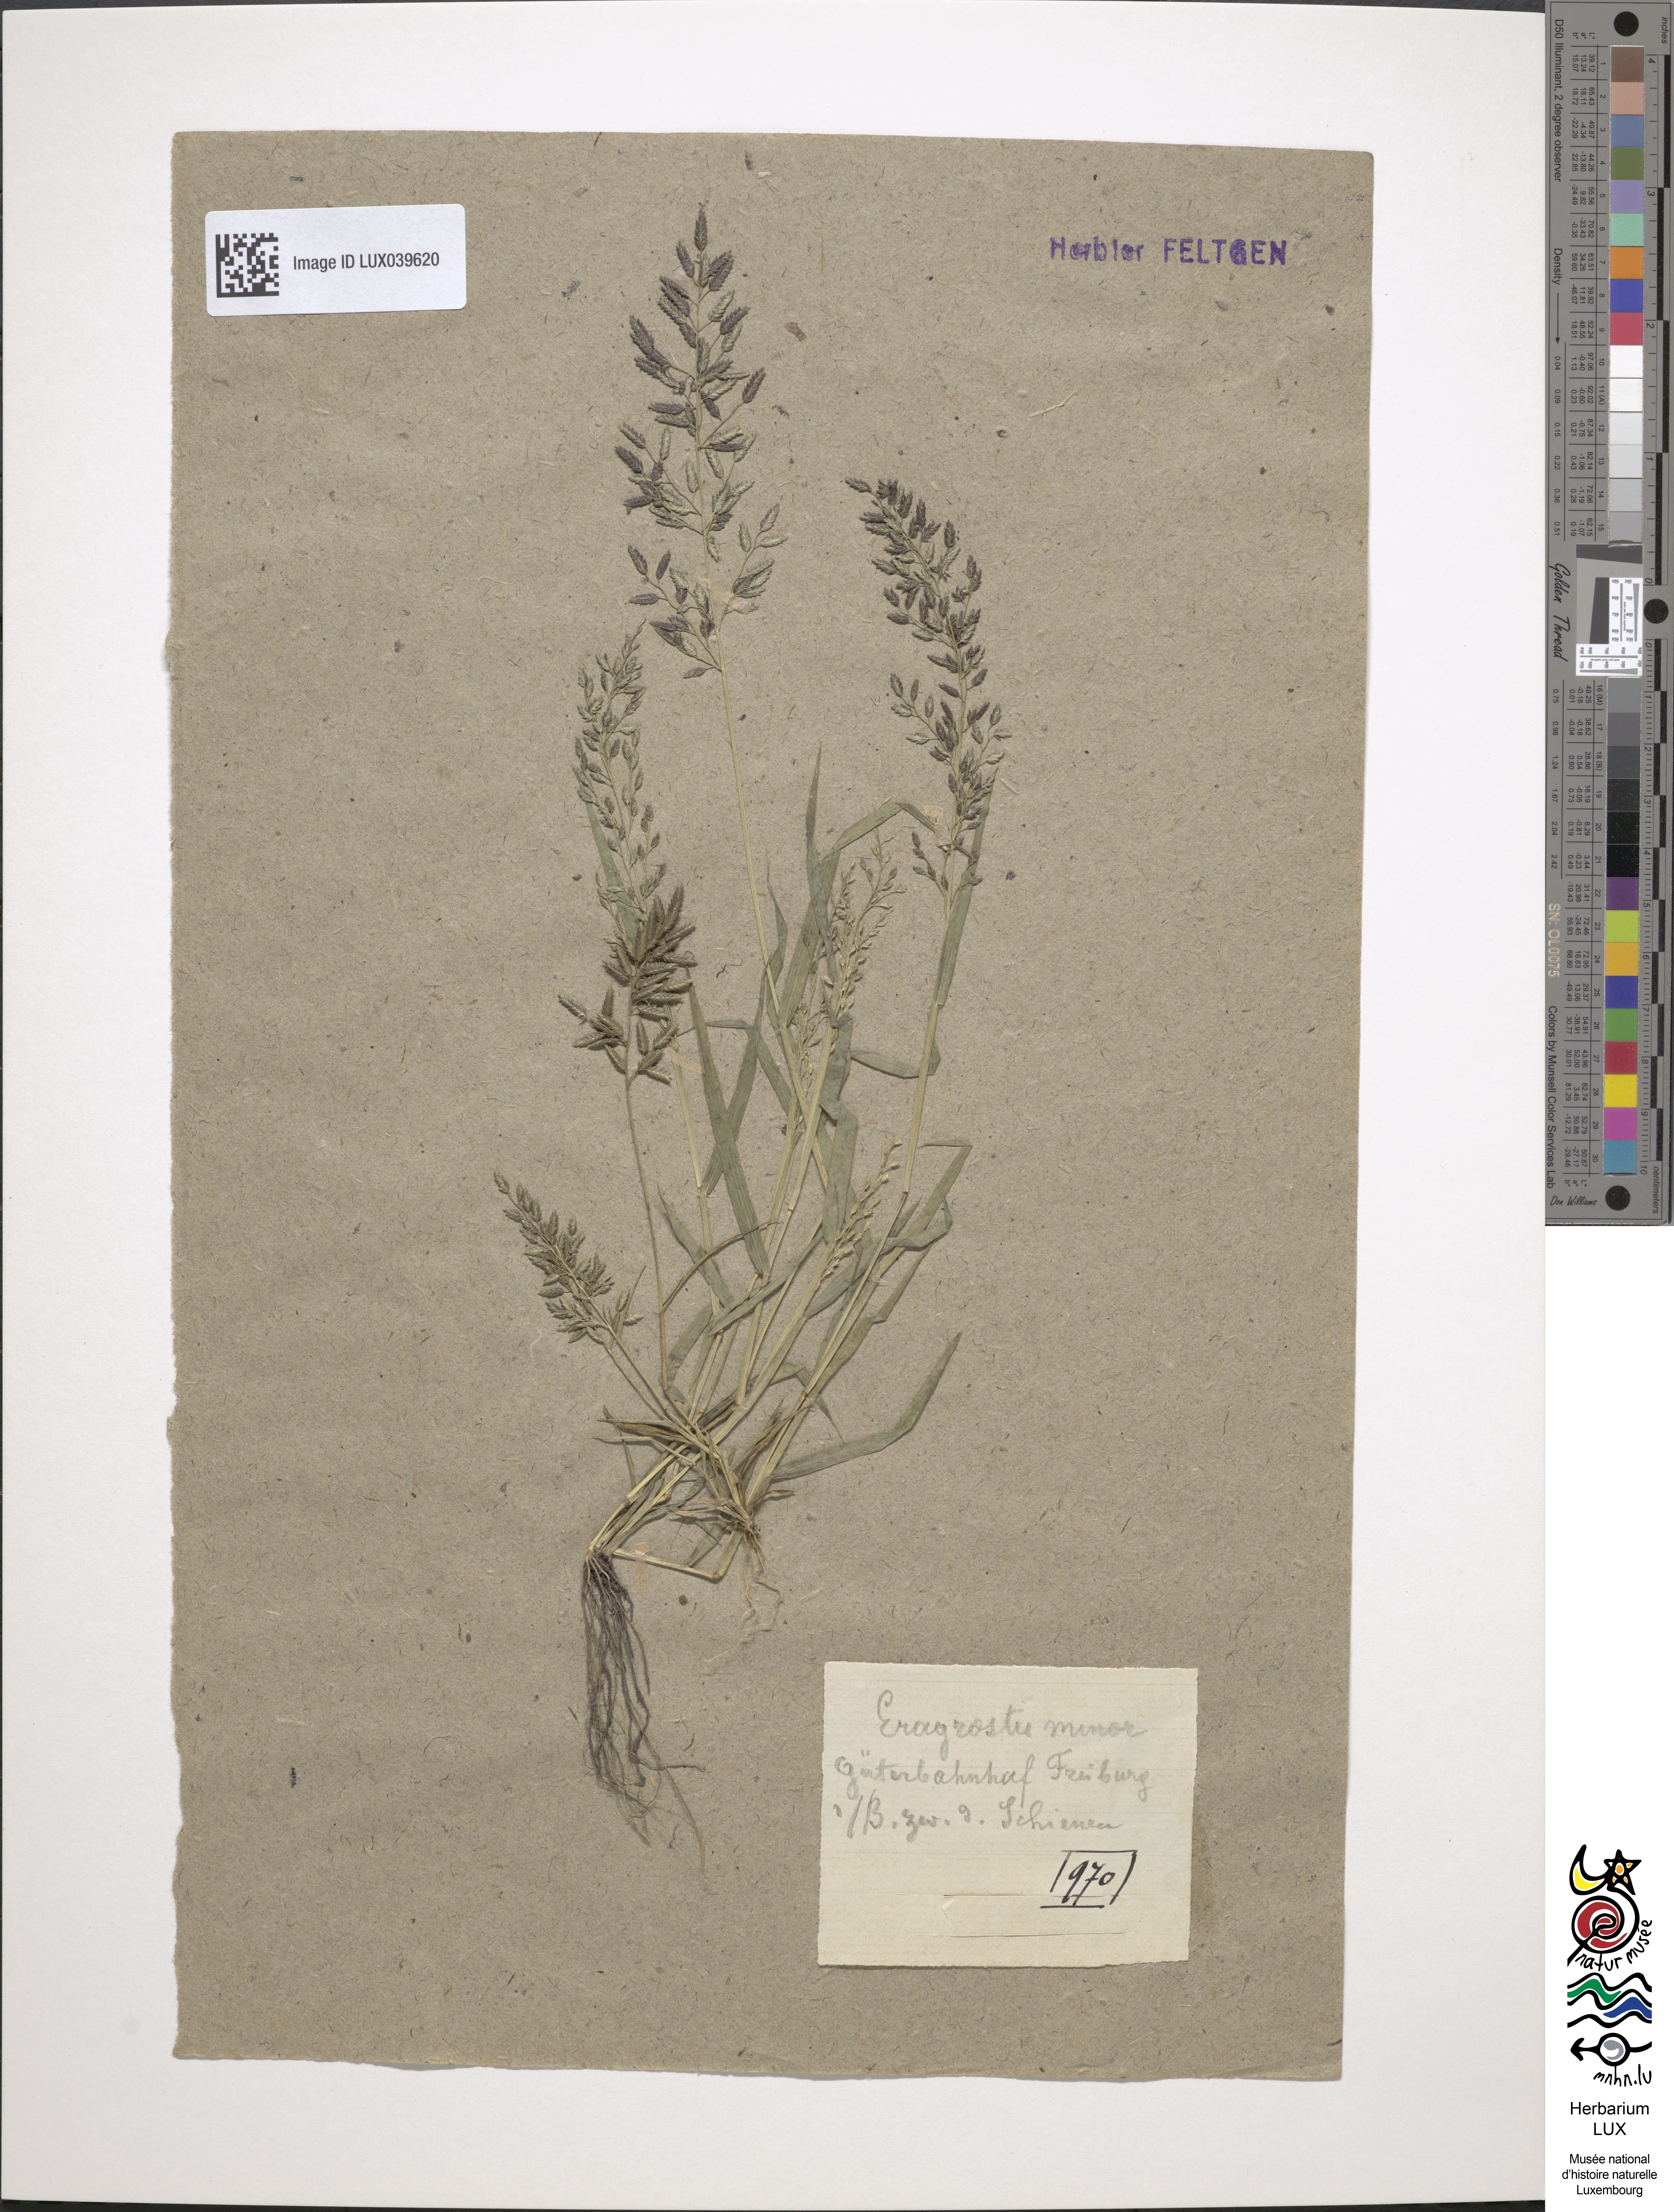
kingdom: Plantae
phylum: Tracheophyta
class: Liliopsida
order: Poales
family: Poaceae
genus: Eragrostis
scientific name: Eragrostis minor
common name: Small love-grass
